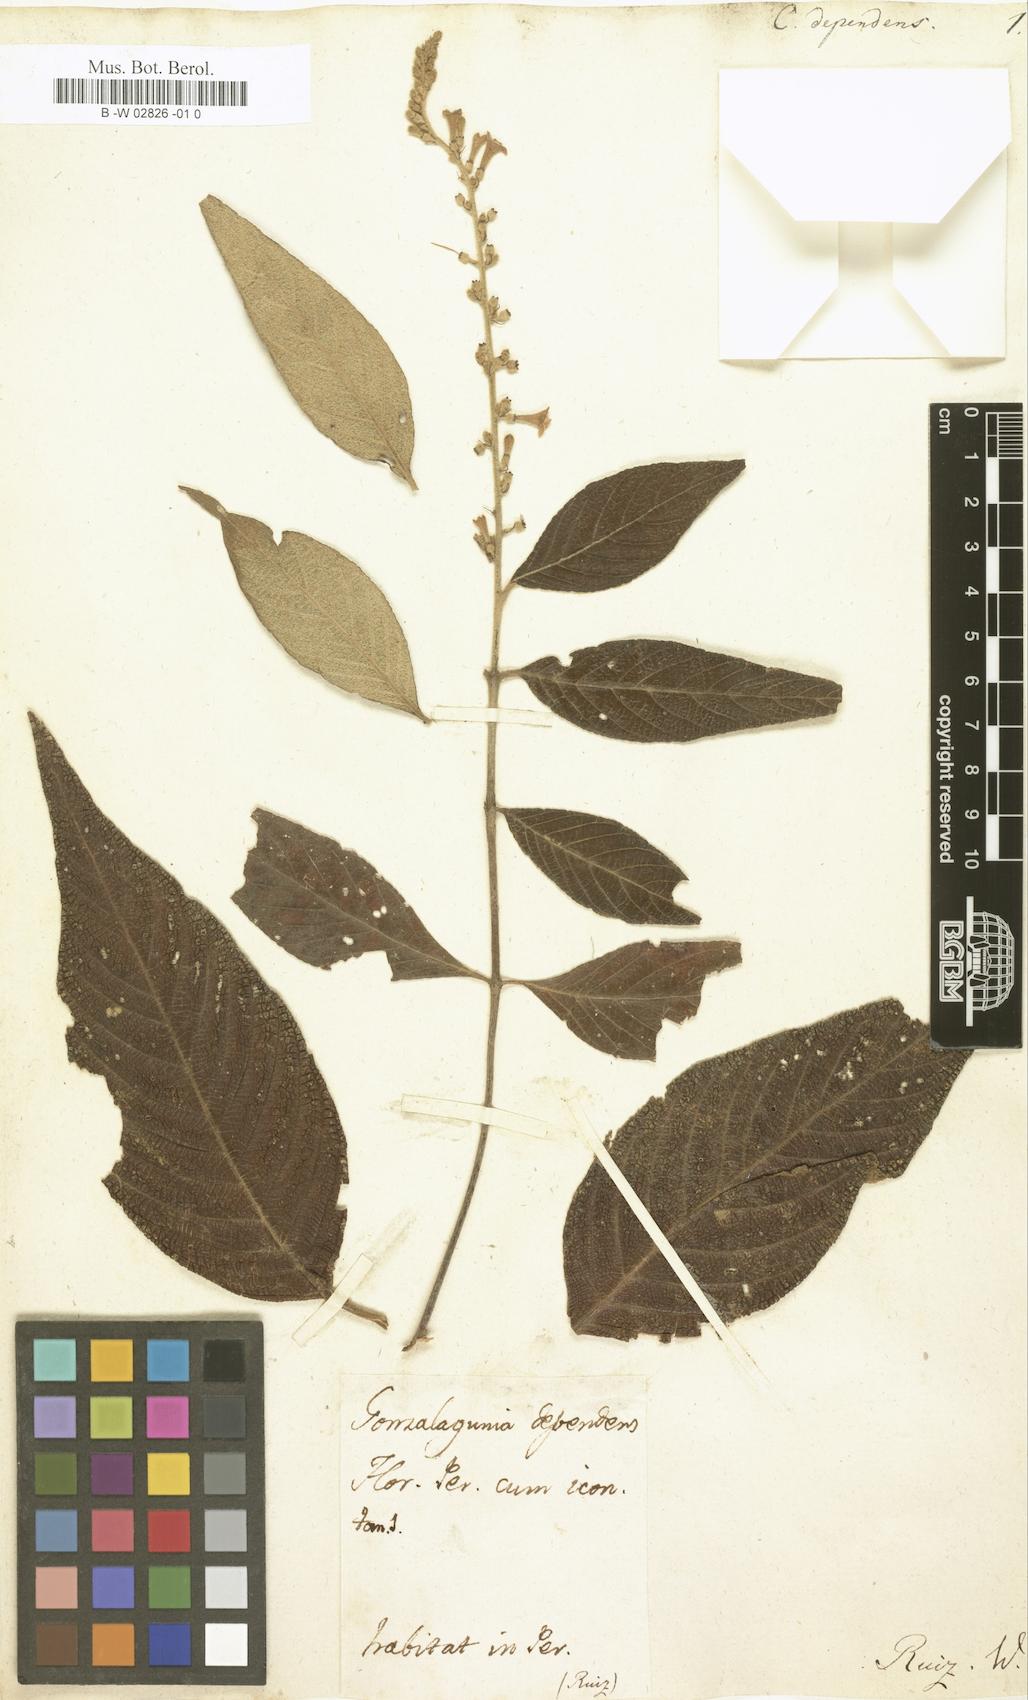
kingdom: Plantae
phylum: Tracheophyta
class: Magnoliopsida
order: Gentianales
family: Rubiaceae
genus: Gonzalagunia
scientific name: Gonzalagunia dependens
